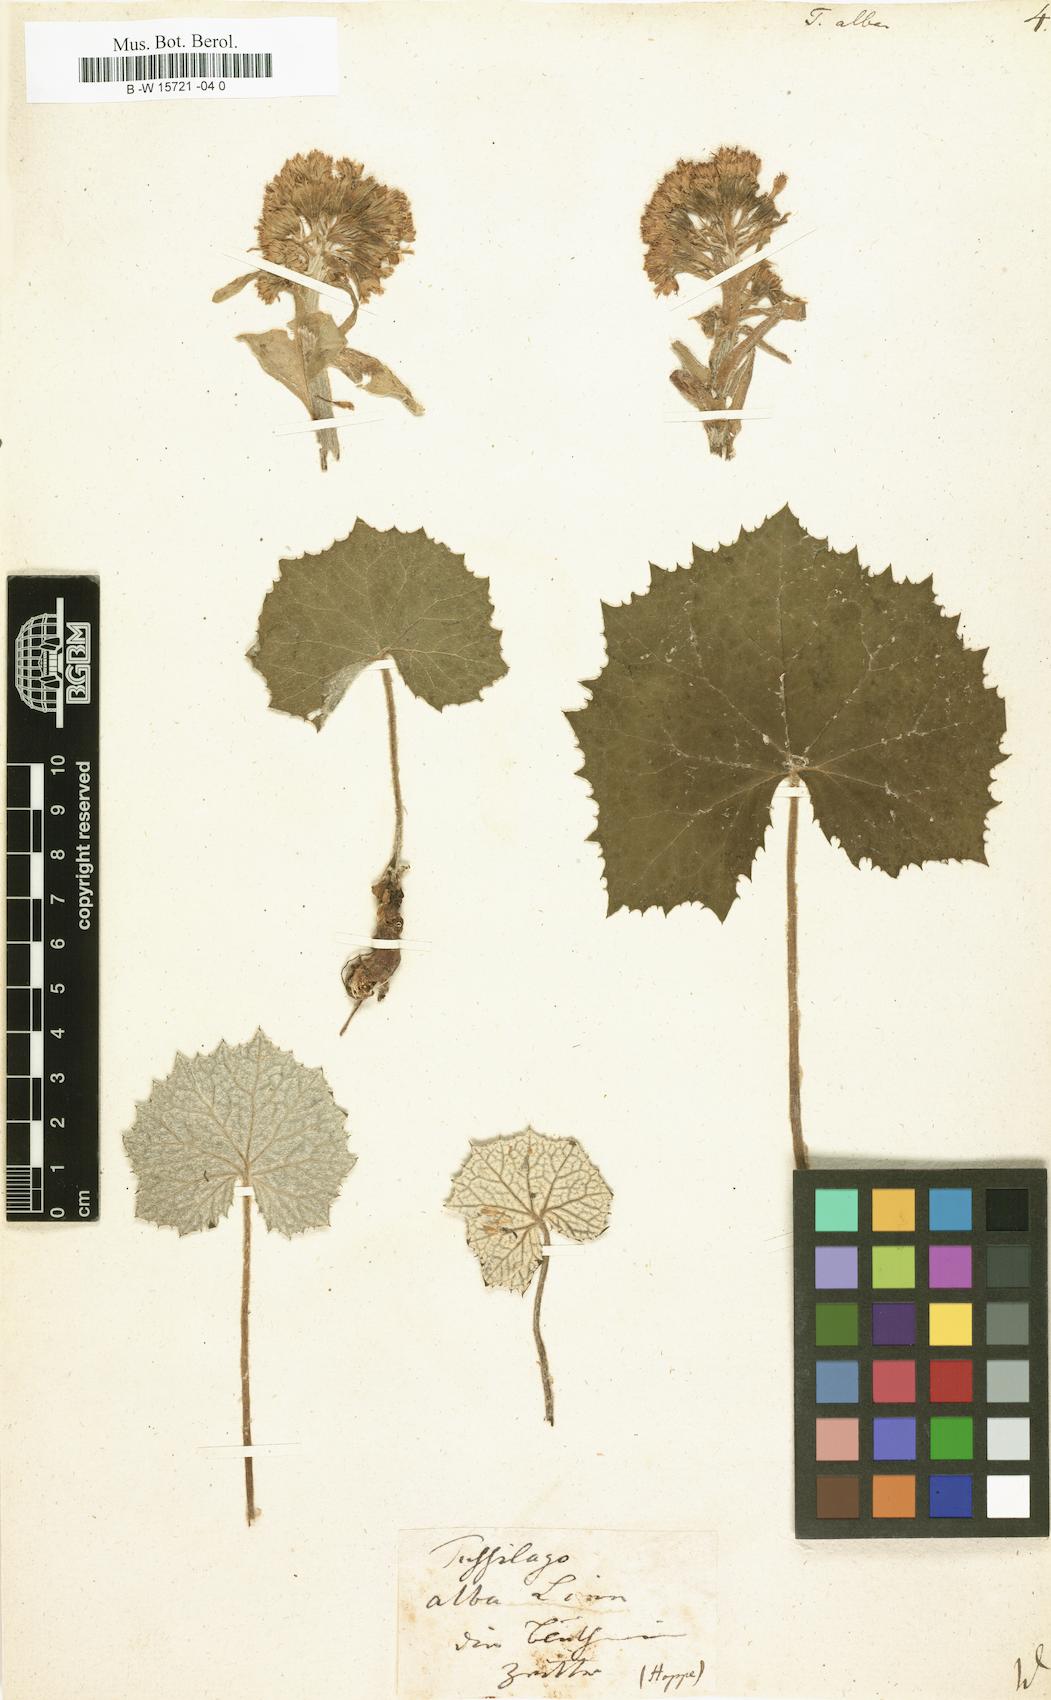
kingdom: Plantae
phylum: Tracheophyta
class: Magnoliopsida
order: Asterales
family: Asteraceae
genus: Petasites
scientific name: Petasites albus
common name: White butterbur
